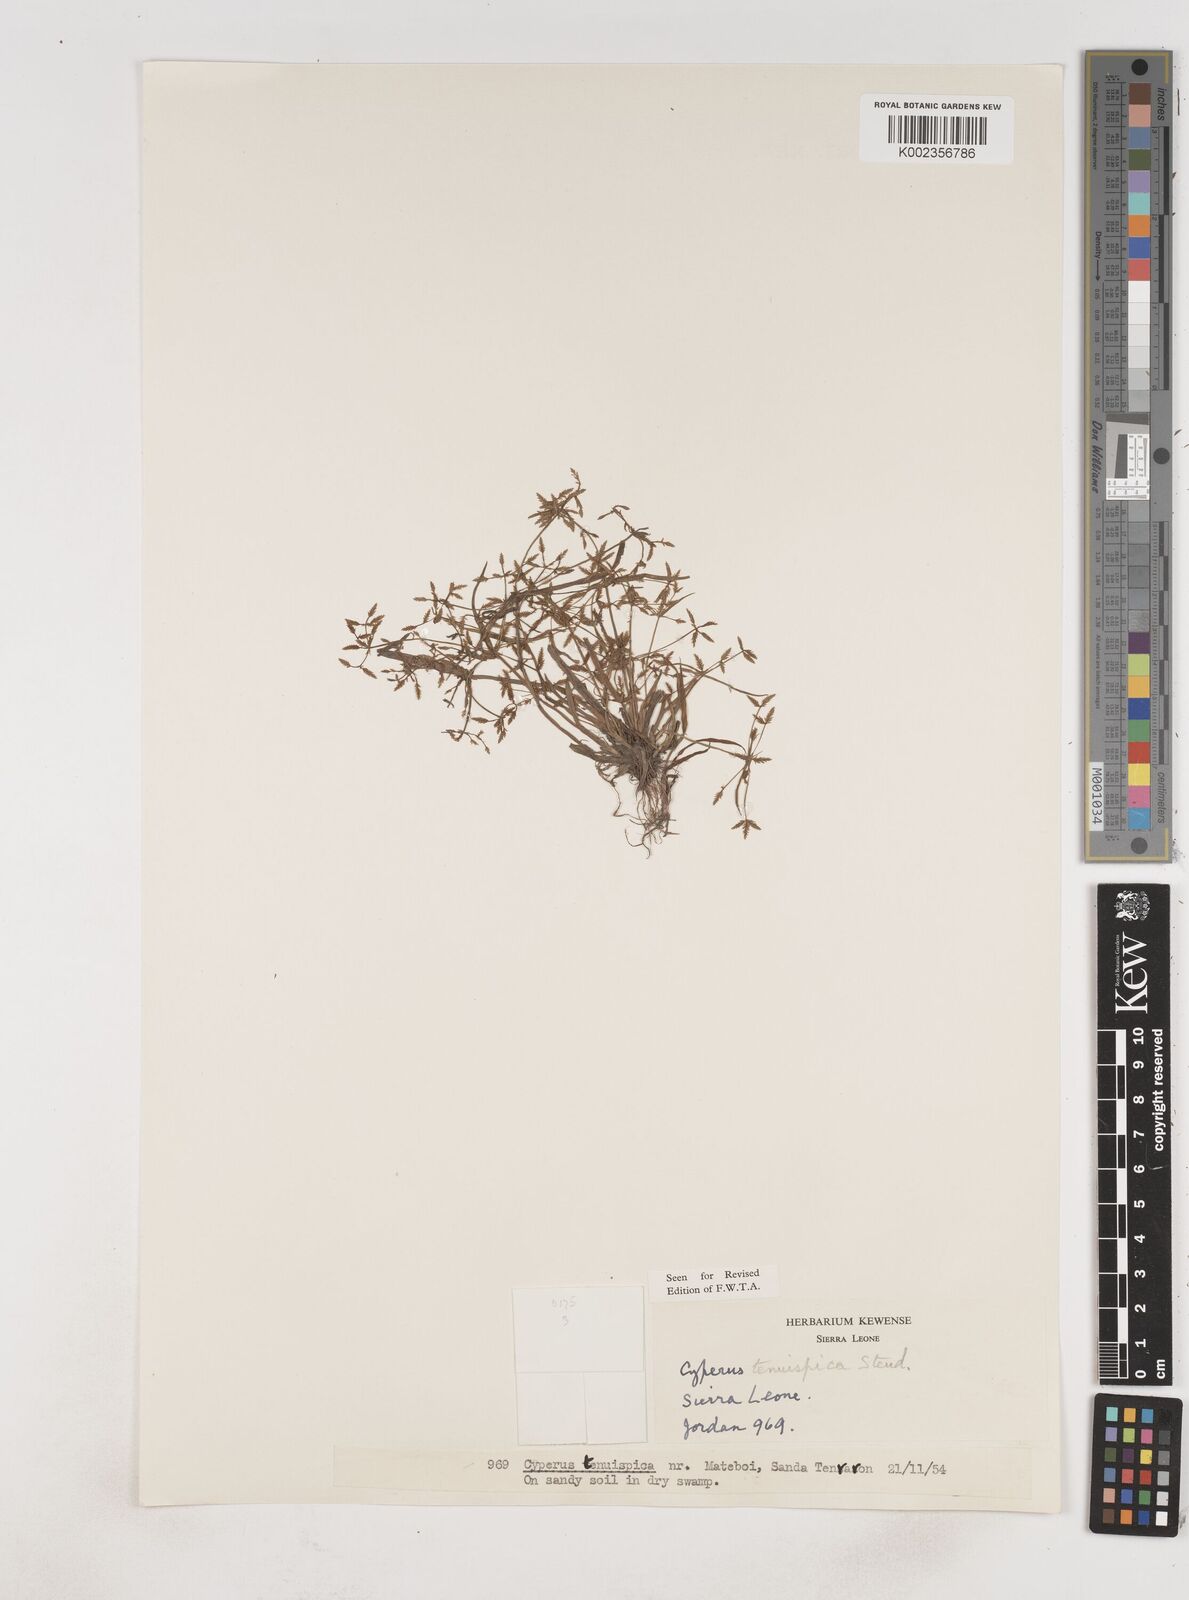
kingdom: Plantae
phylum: Tracheophyta
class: Liliopsida
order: Poales
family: Cyperaceae
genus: Cyperus
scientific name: Cyperus tenuispica
